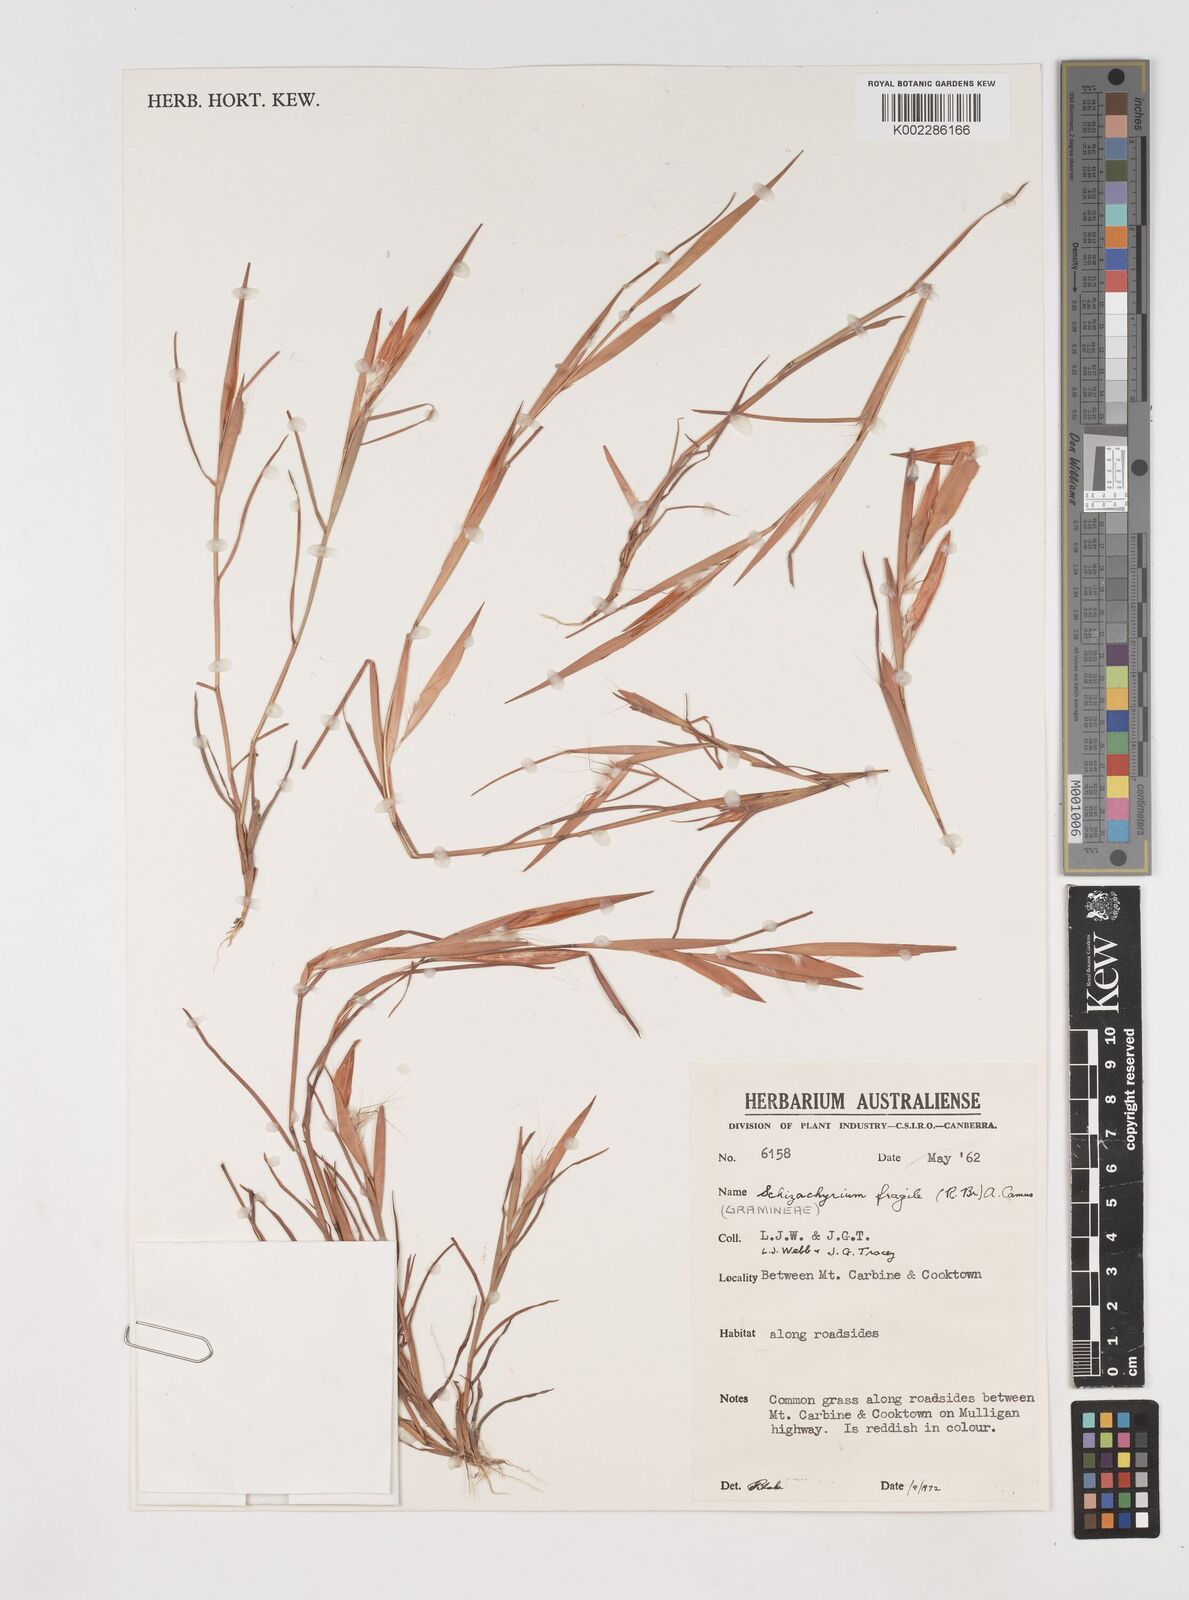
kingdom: Plantae
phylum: Tracheophyta
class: Liliopsida
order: Poales
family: Poaceae
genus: Schizachyrium
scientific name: Schizachyrium fragile
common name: Red spathe grass
